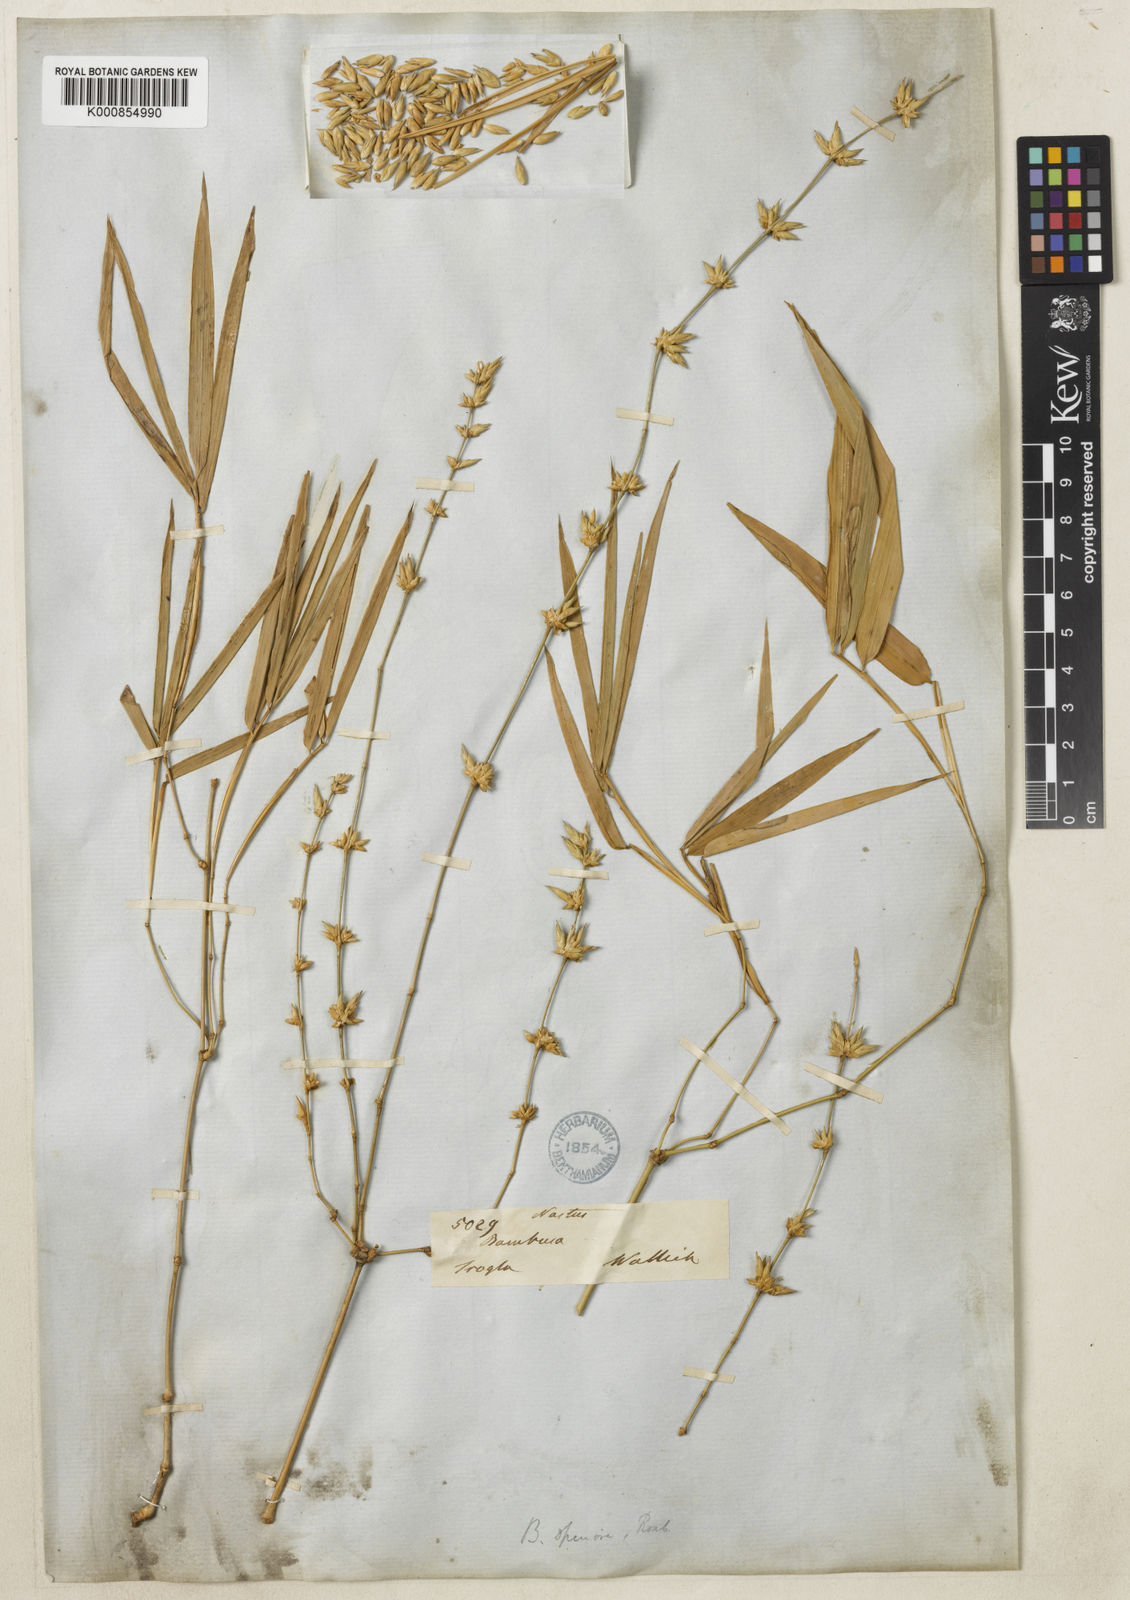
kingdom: Plantae
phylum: Tracheophyta
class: Liliopsida
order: Poales
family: Poaceae
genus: Dendrocalamus
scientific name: Dendrocalamus membranaceus
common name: White bamboo
